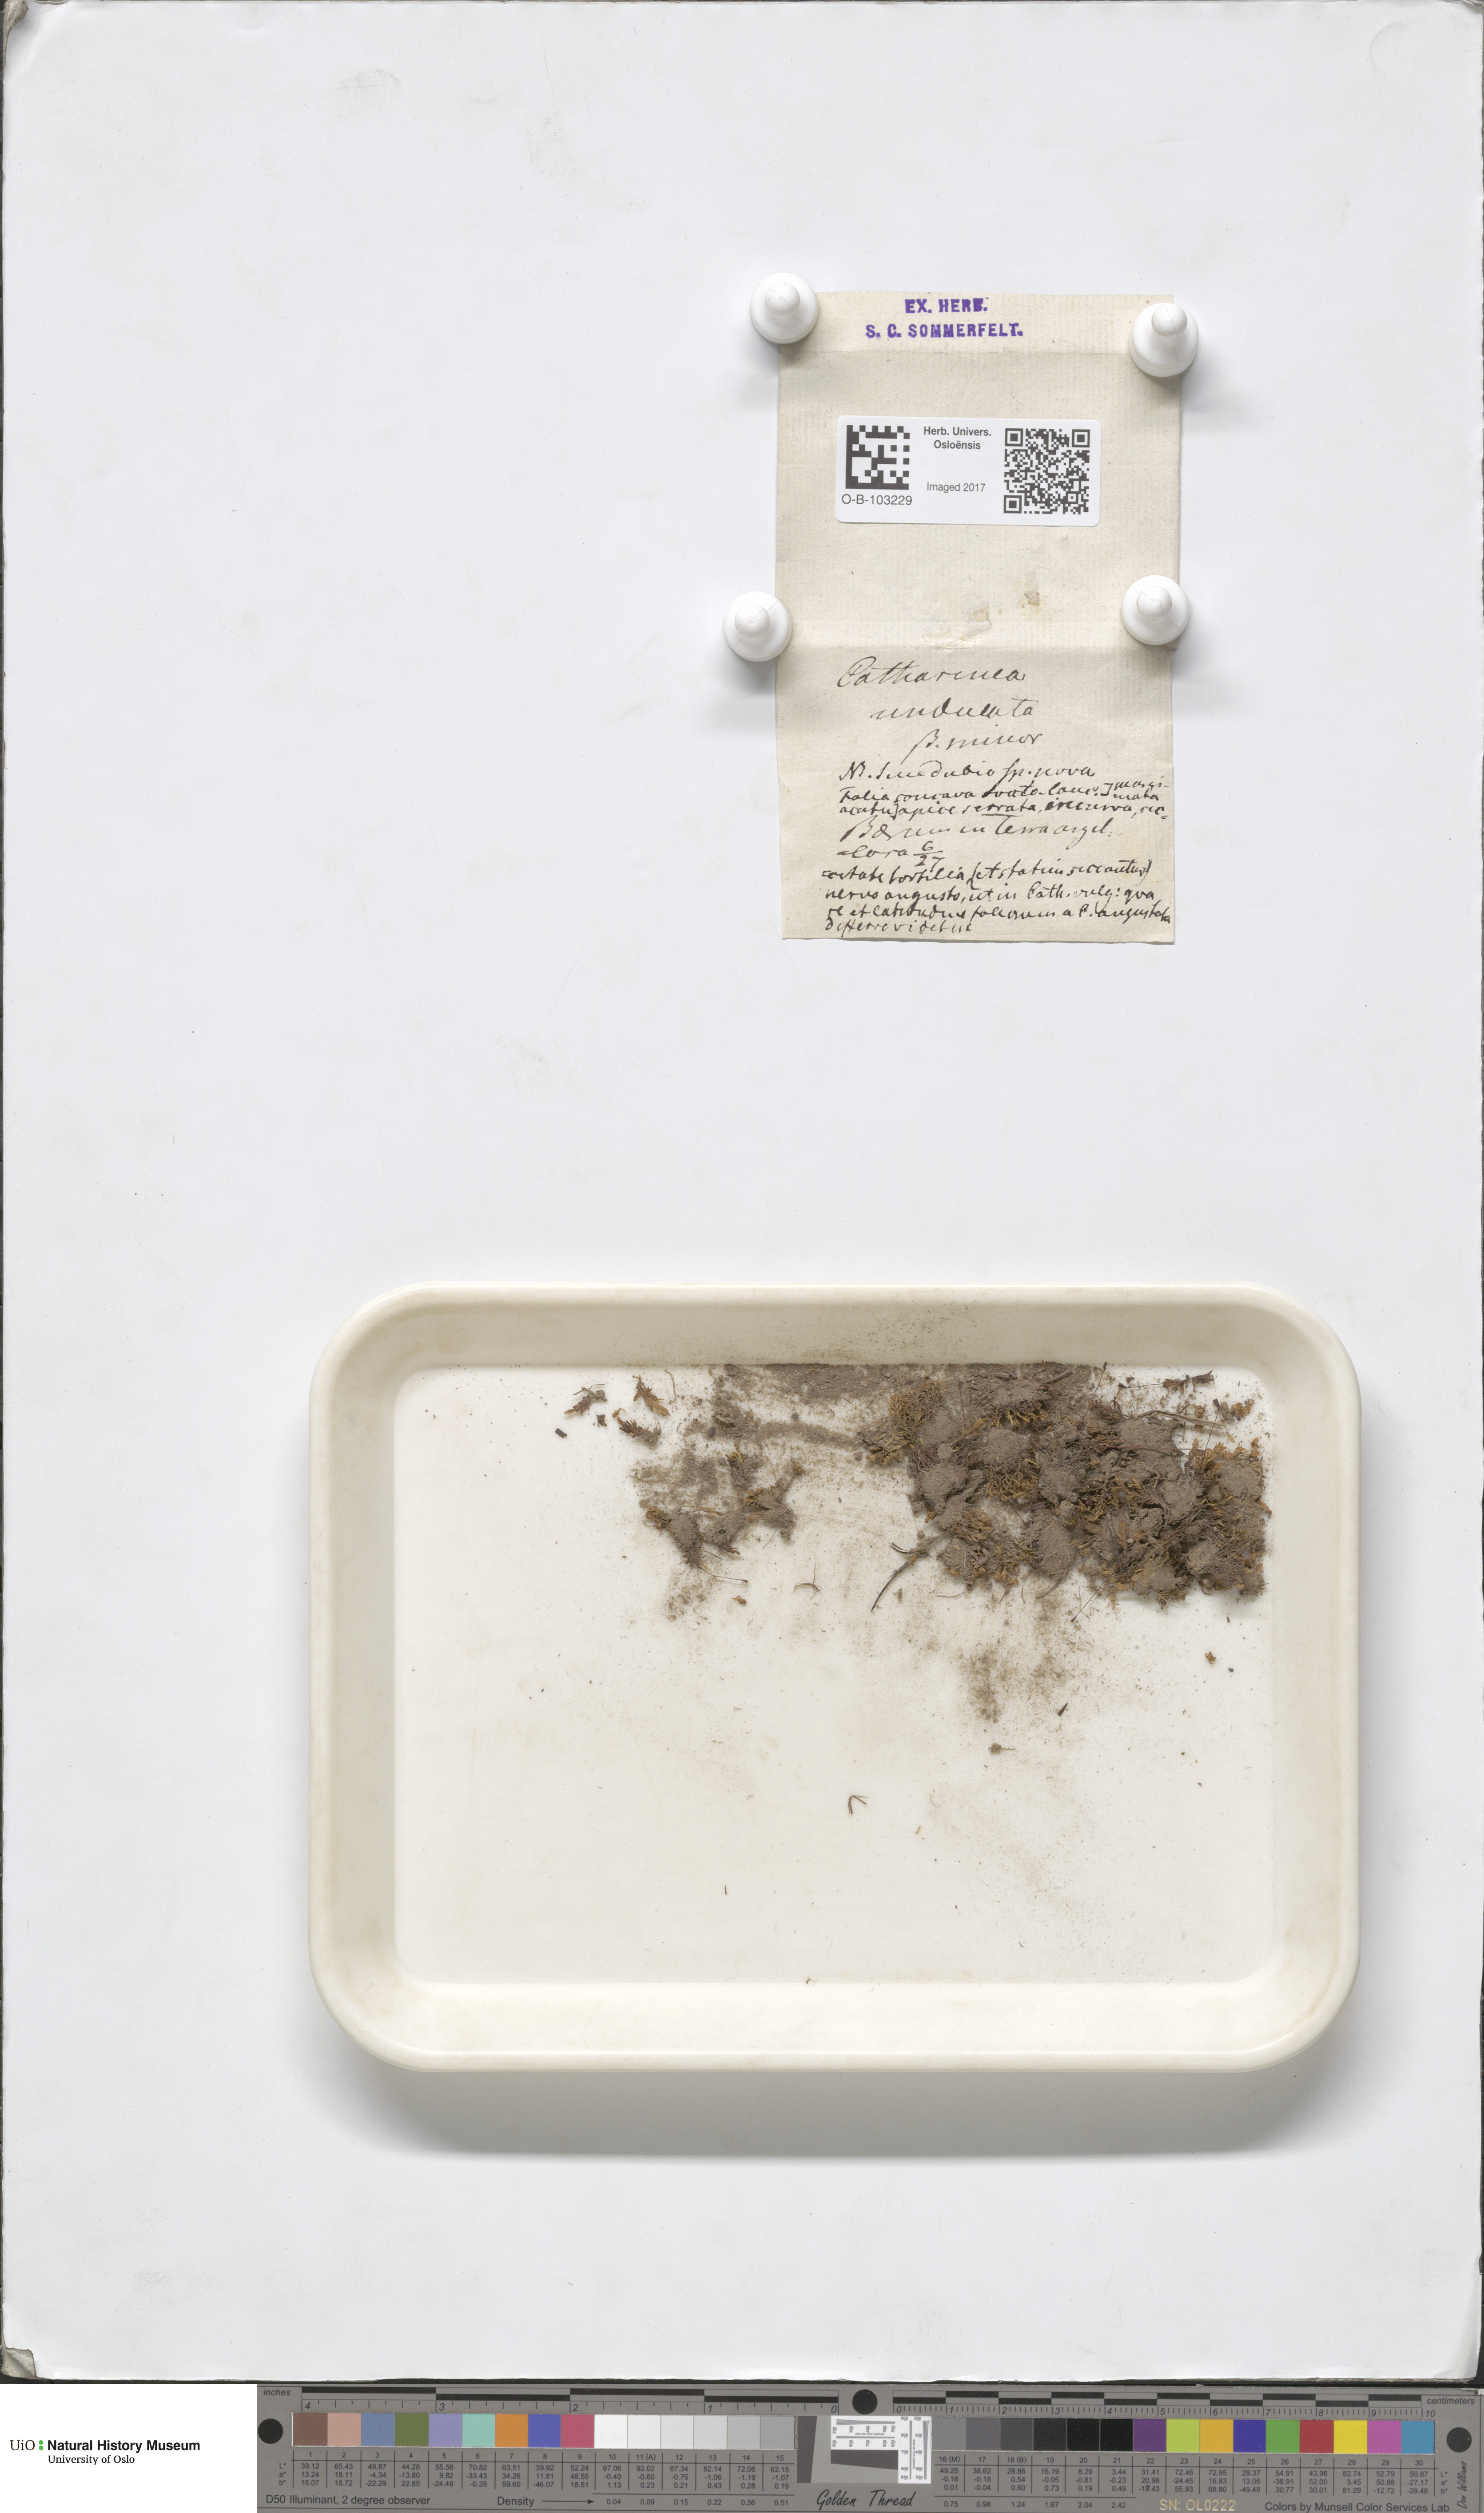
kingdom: Plantae
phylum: Bryophyta
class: Polytrichopsida
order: Polytrichales
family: Polytrichaceae
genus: Atrichum
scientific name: Atrichum undulatum
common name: Common smoothcap
